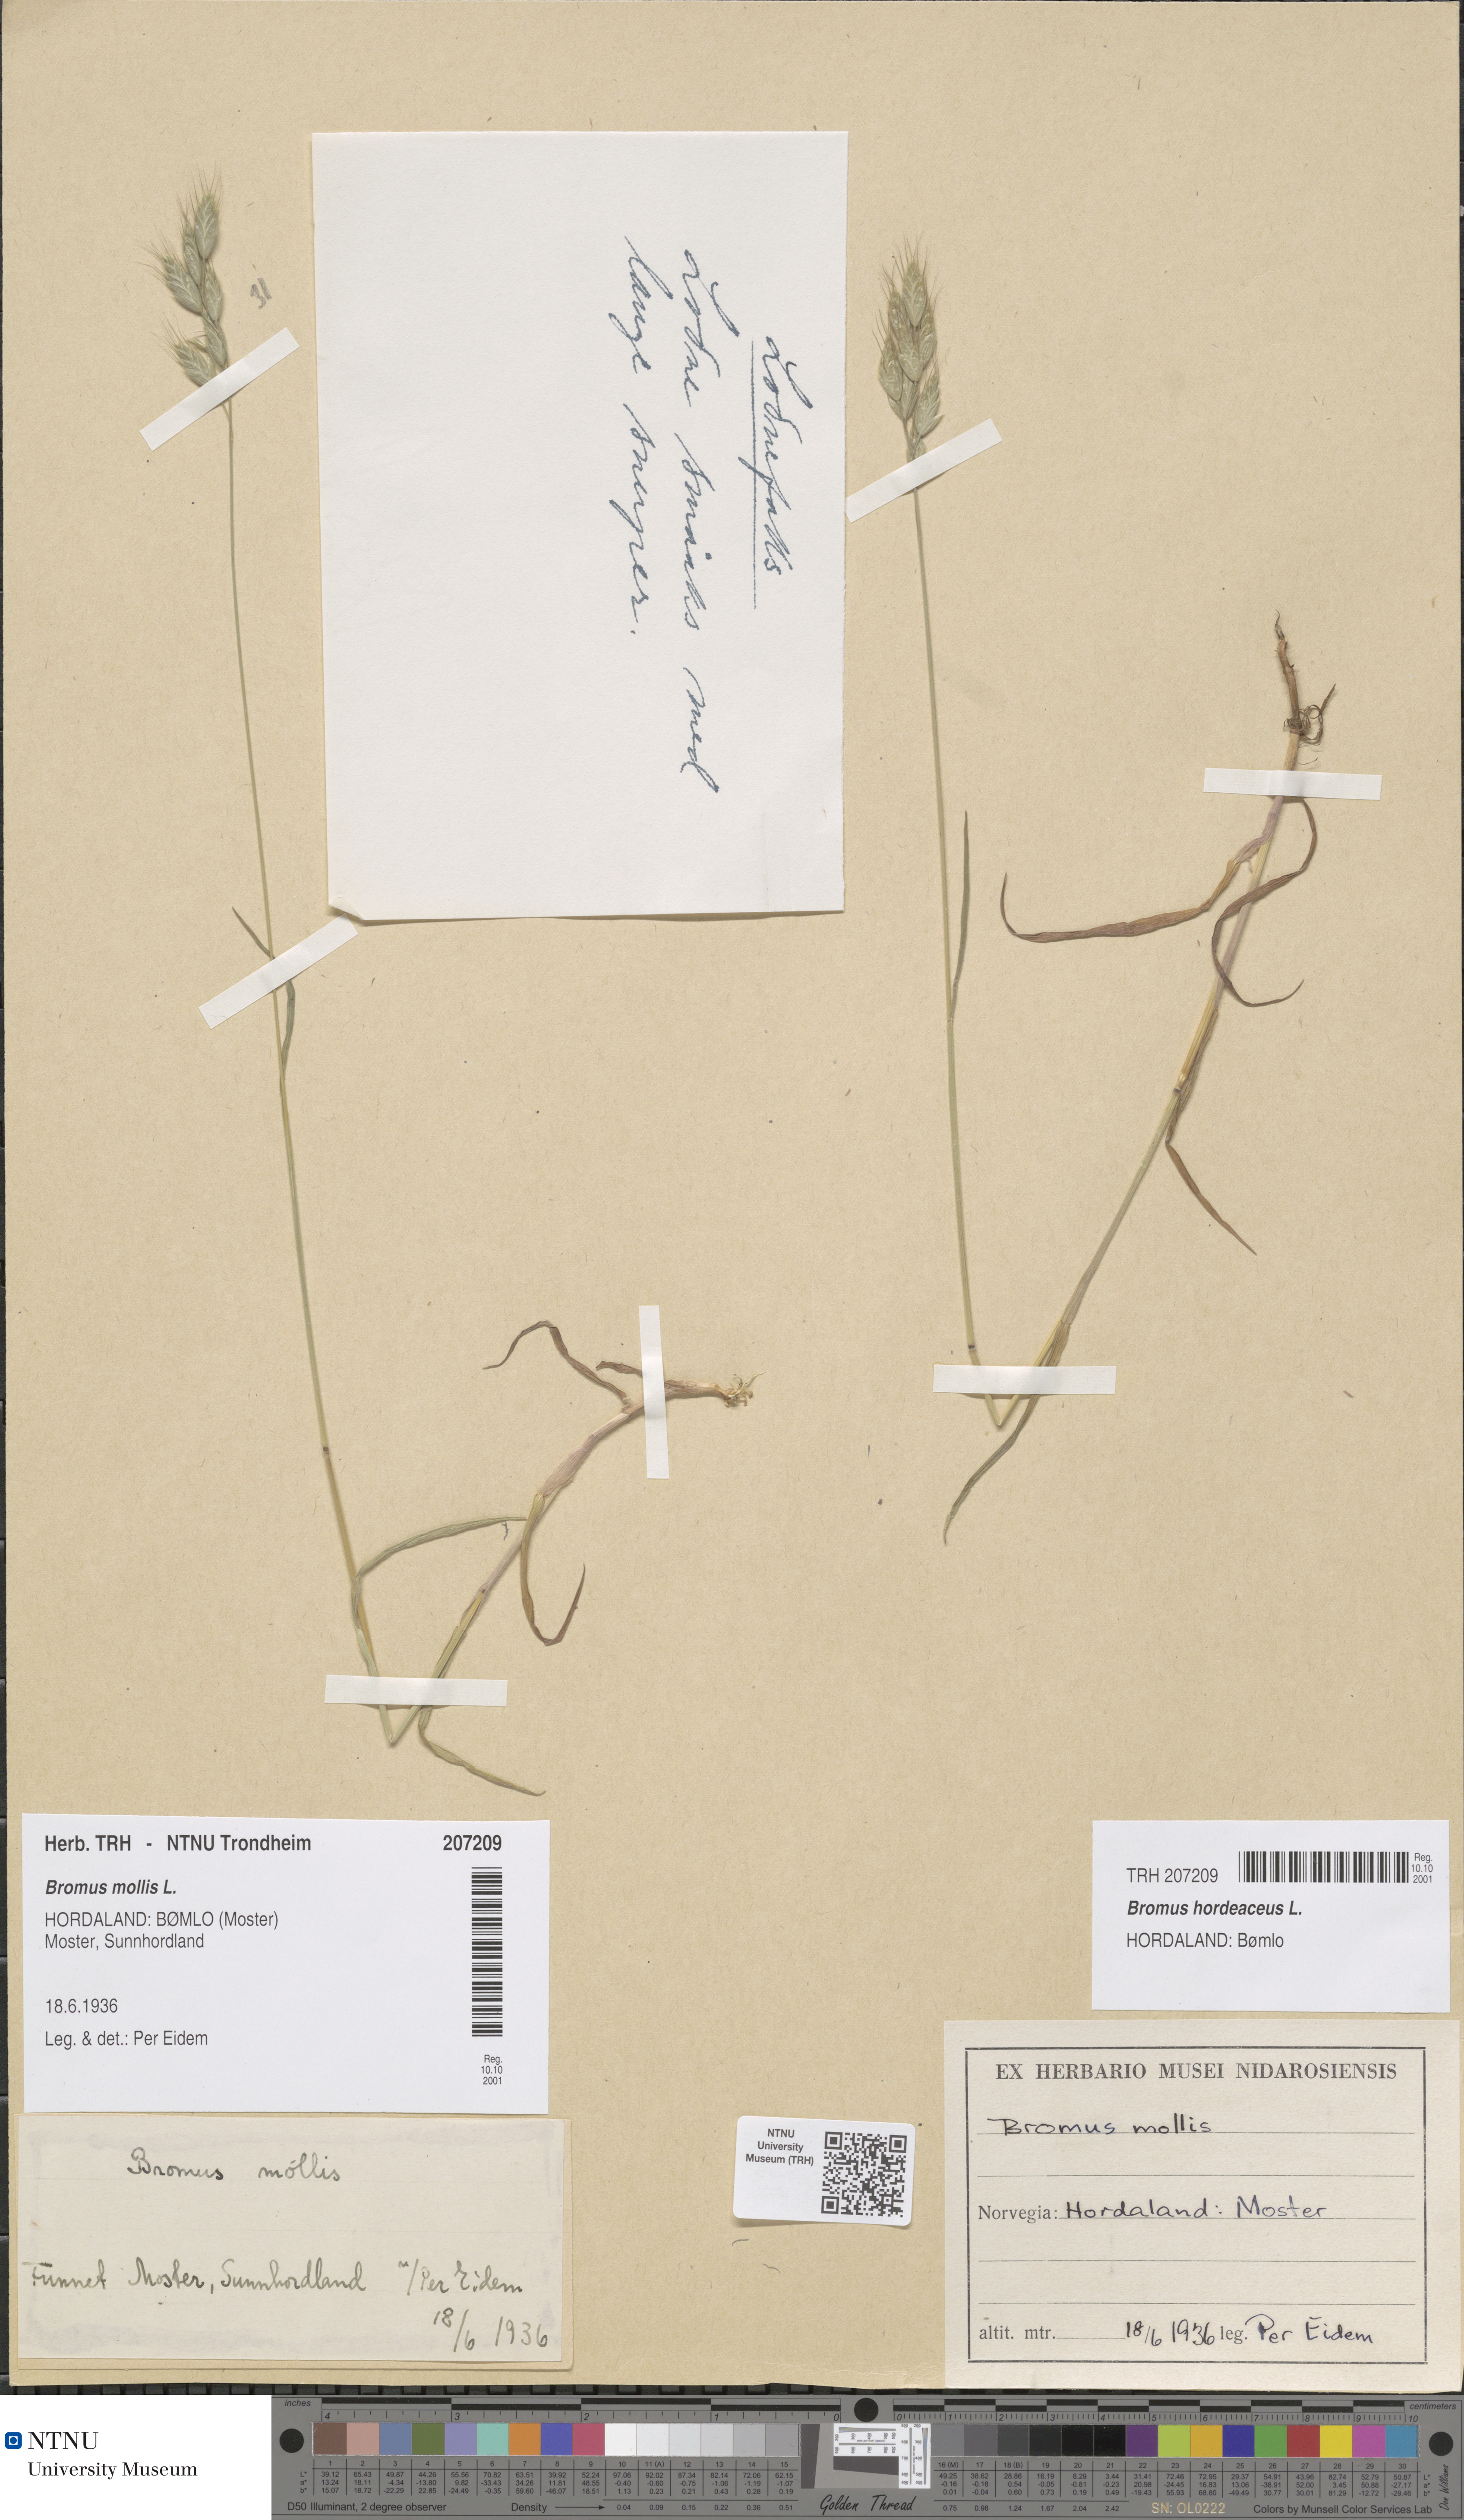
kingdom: Plantae
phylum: Tracheophyta
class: Liliopsida
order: Poales
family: Poaceae
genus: Bromus
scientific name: Bromus hordeaceus
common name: Soft brome
